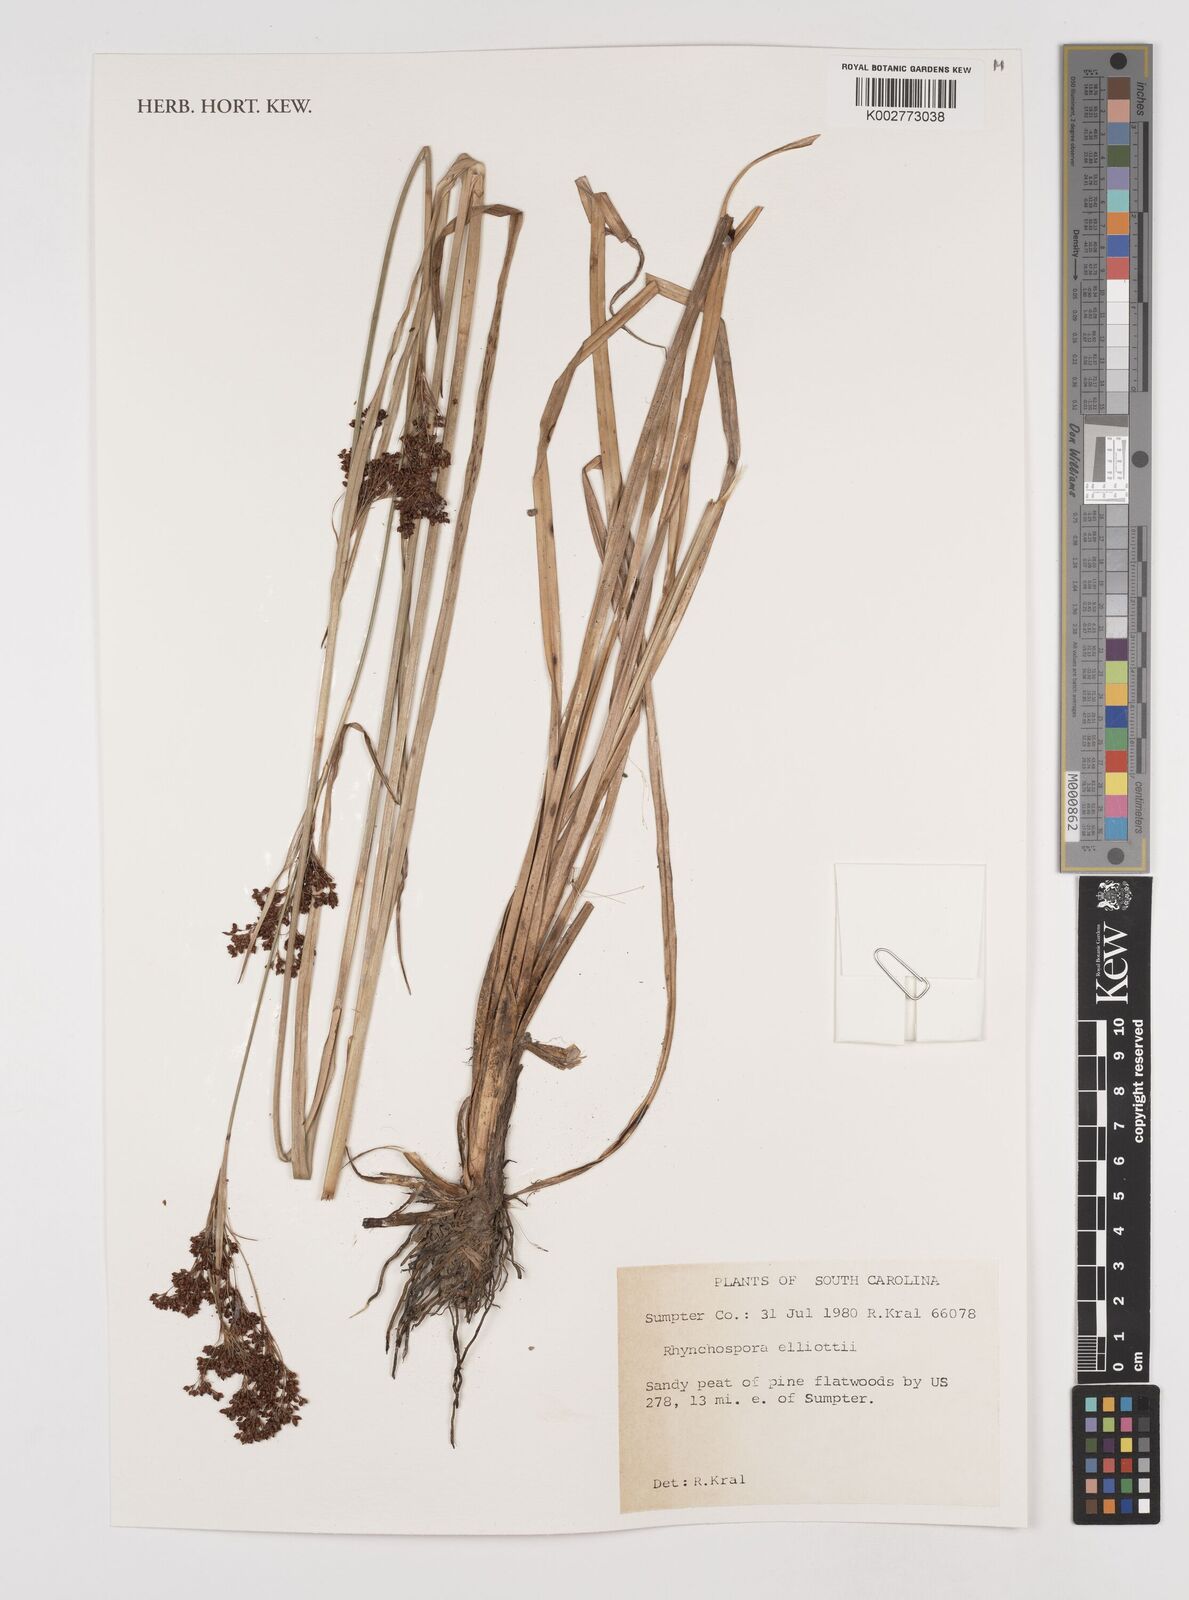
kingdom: Plantae
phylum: Tracheophyta
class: Liliopsida
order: Poales
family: Cyperaceae
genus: Rhynchospora
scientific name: Rhynchospora elliottii
